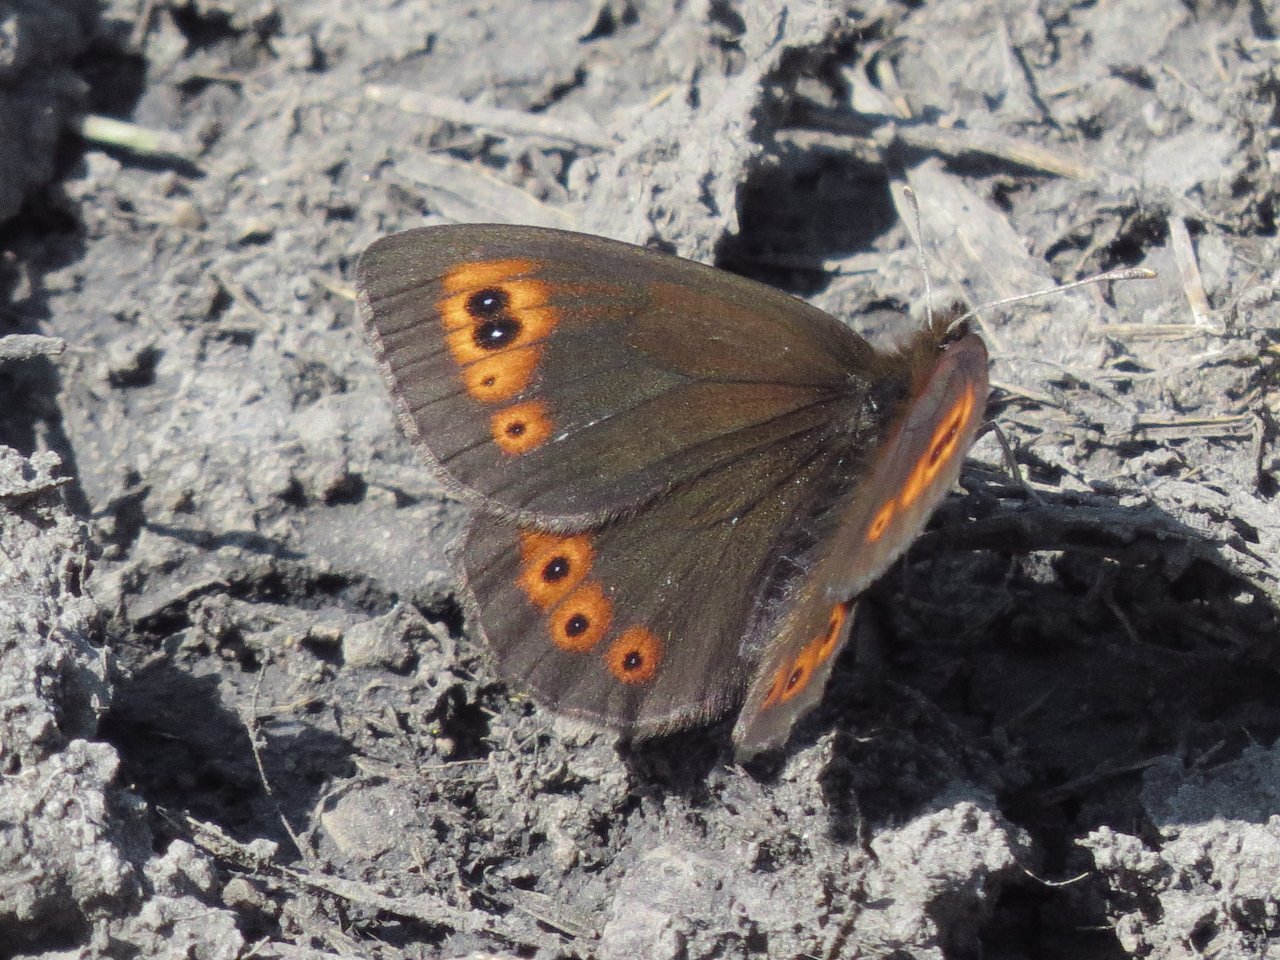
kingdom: Animalia
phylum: Arthropoda
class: Insecta
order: Lepidoptera
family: Nymphalidae
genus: Erebia
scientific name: Erebia epipsodea
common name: Common Alpine
